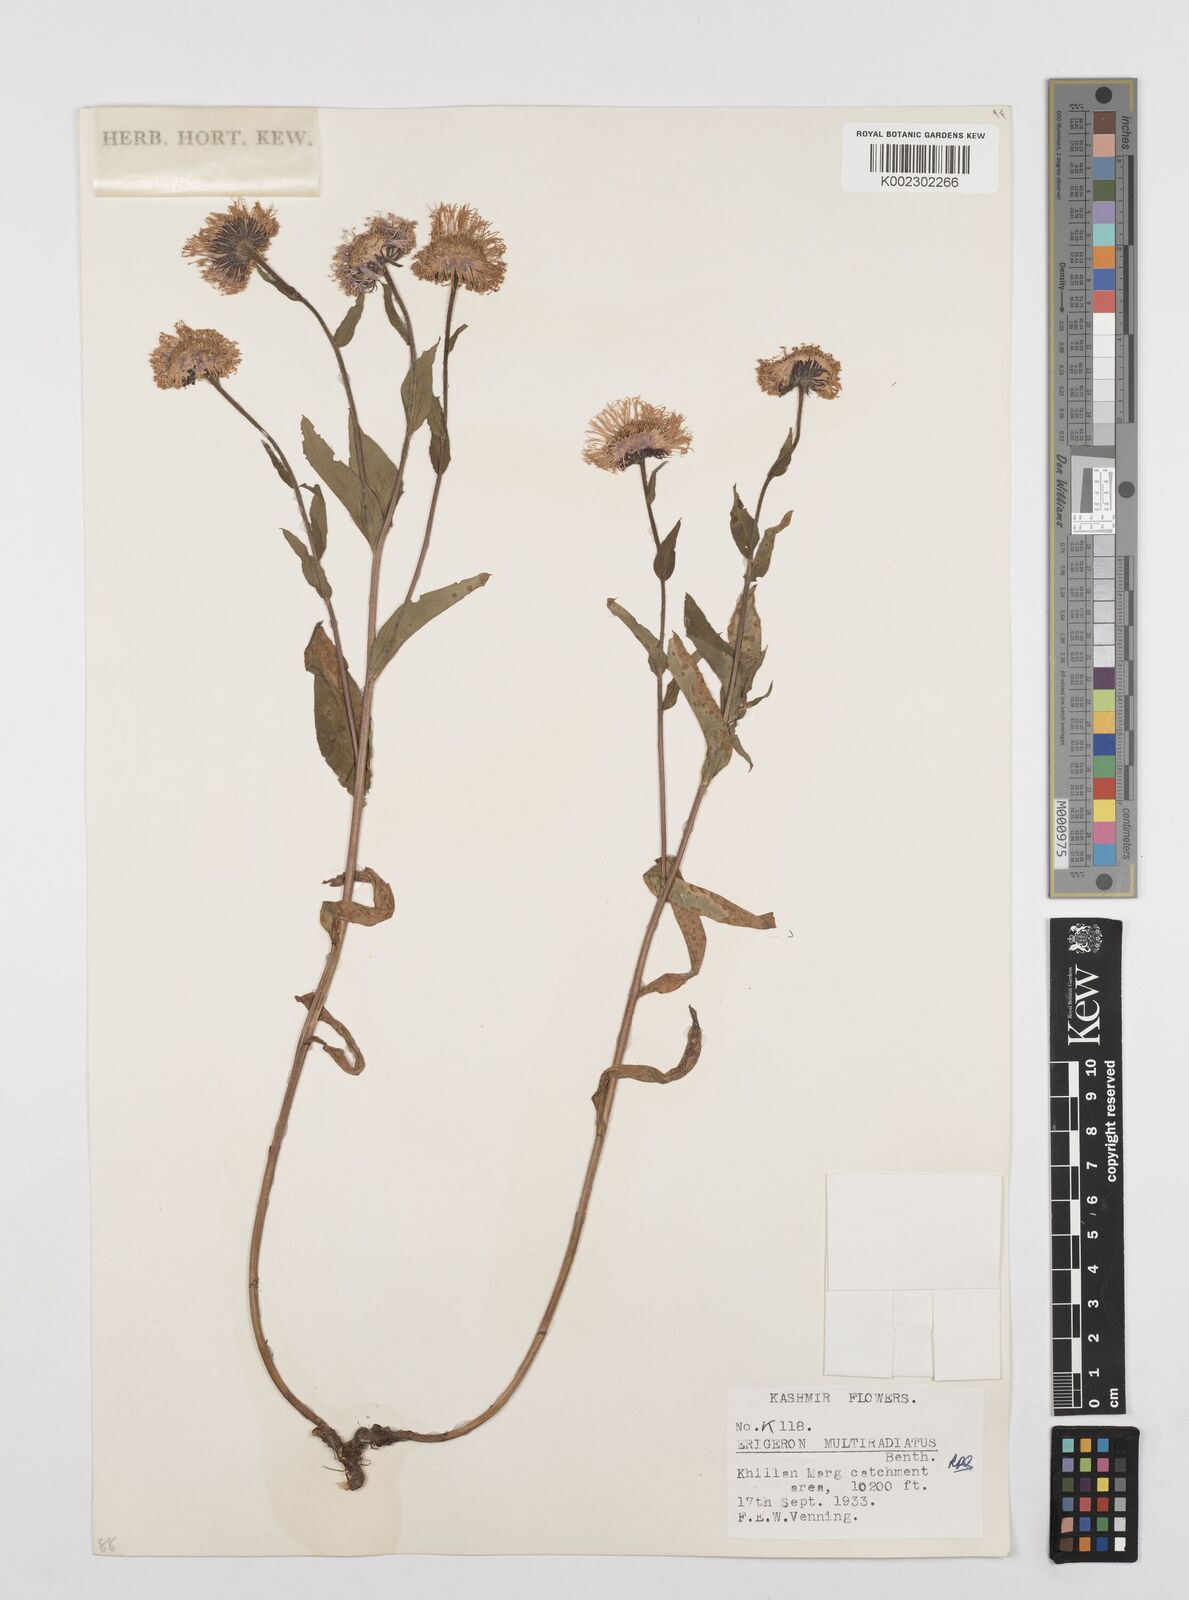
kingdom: Plantae
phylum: Tracheophyta
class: Magnoliopsida
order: Asterales
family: Asteraceae
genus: Erigeron
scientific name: Erigeron multiradiatus
